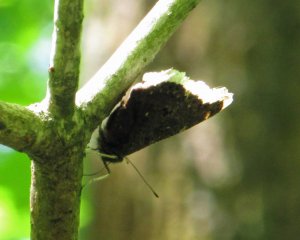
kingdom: Animalia
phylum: Arthropoda
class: Insecta
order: Lepidoptera
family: Nymphalidae
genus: Nymphalis
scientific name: Nymphalis antiopa
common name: Mourning Cloak
